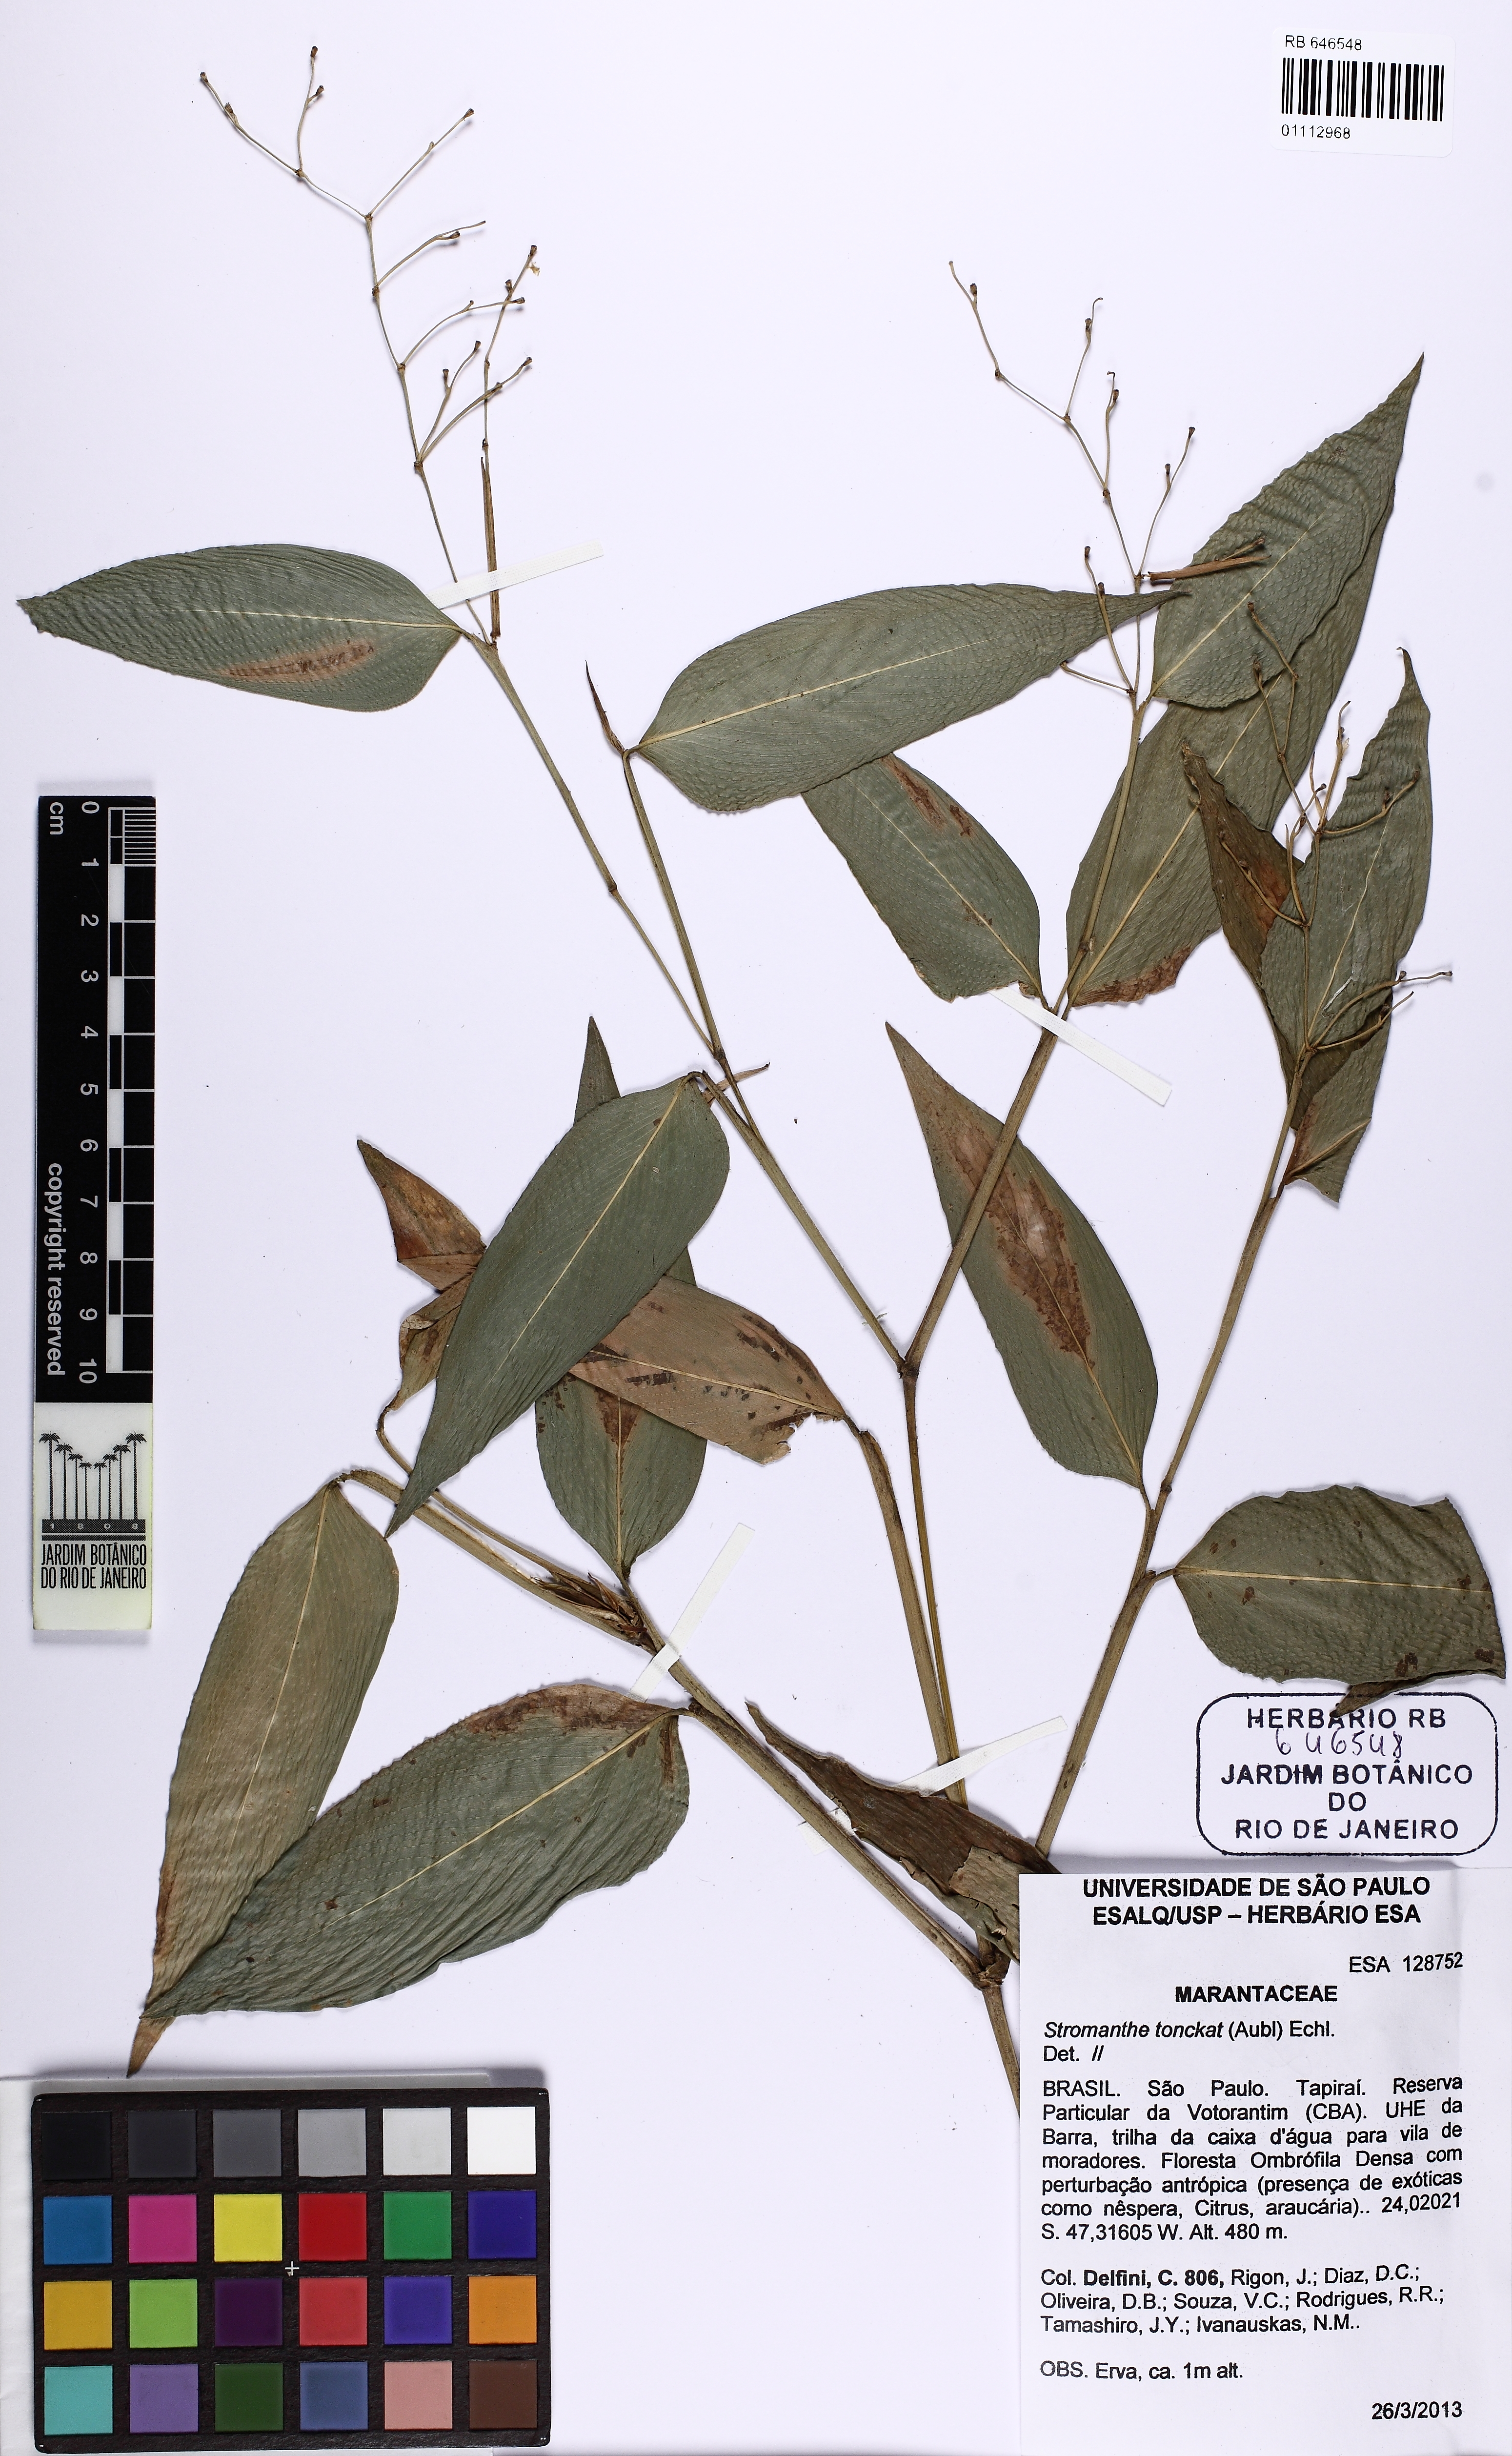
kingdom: Plantae
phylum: Tracheophyta
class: Liliopsida
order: Zingiberales
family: Marantaceae
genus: Stromanthe
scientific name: Stromanthe tonckat
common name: Stromanthe
